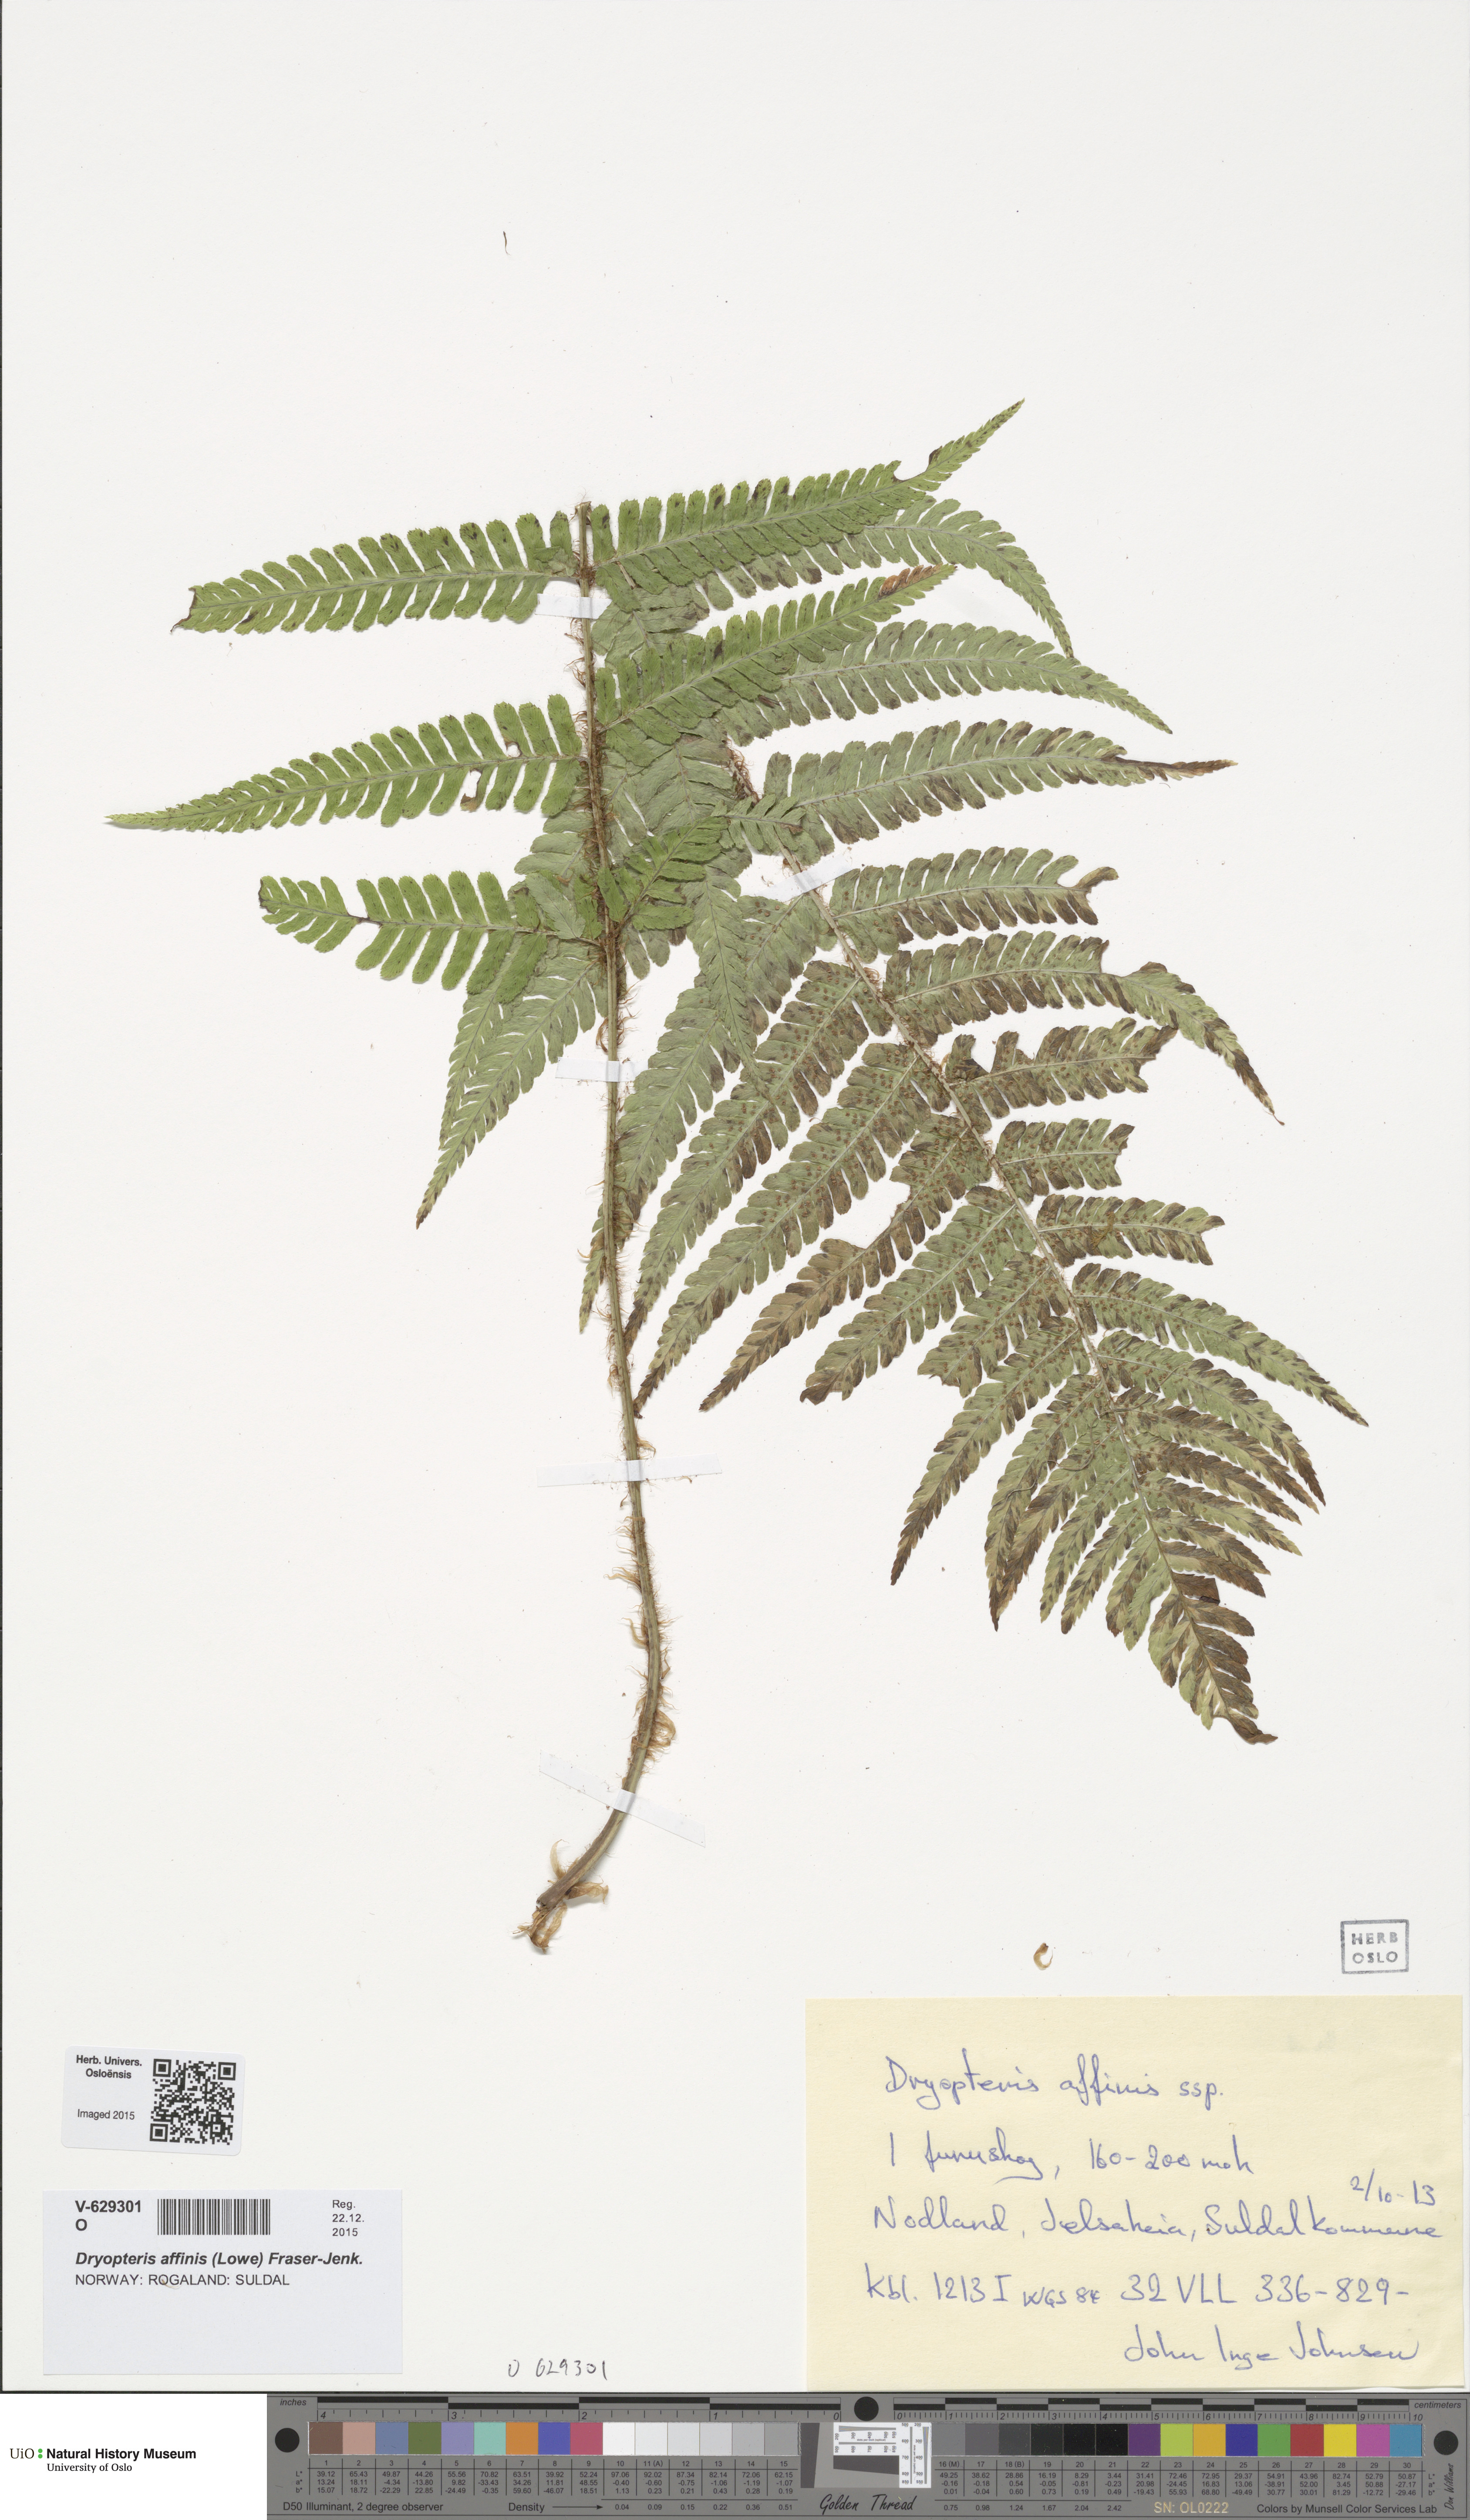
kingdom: Plantae
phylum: Tracheophyta
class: Polypodiopsida
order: Polypodiales
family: Dryopteridaceae
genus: Dryopteris
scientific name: Dryopteris affinis
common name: Scaly male fern
